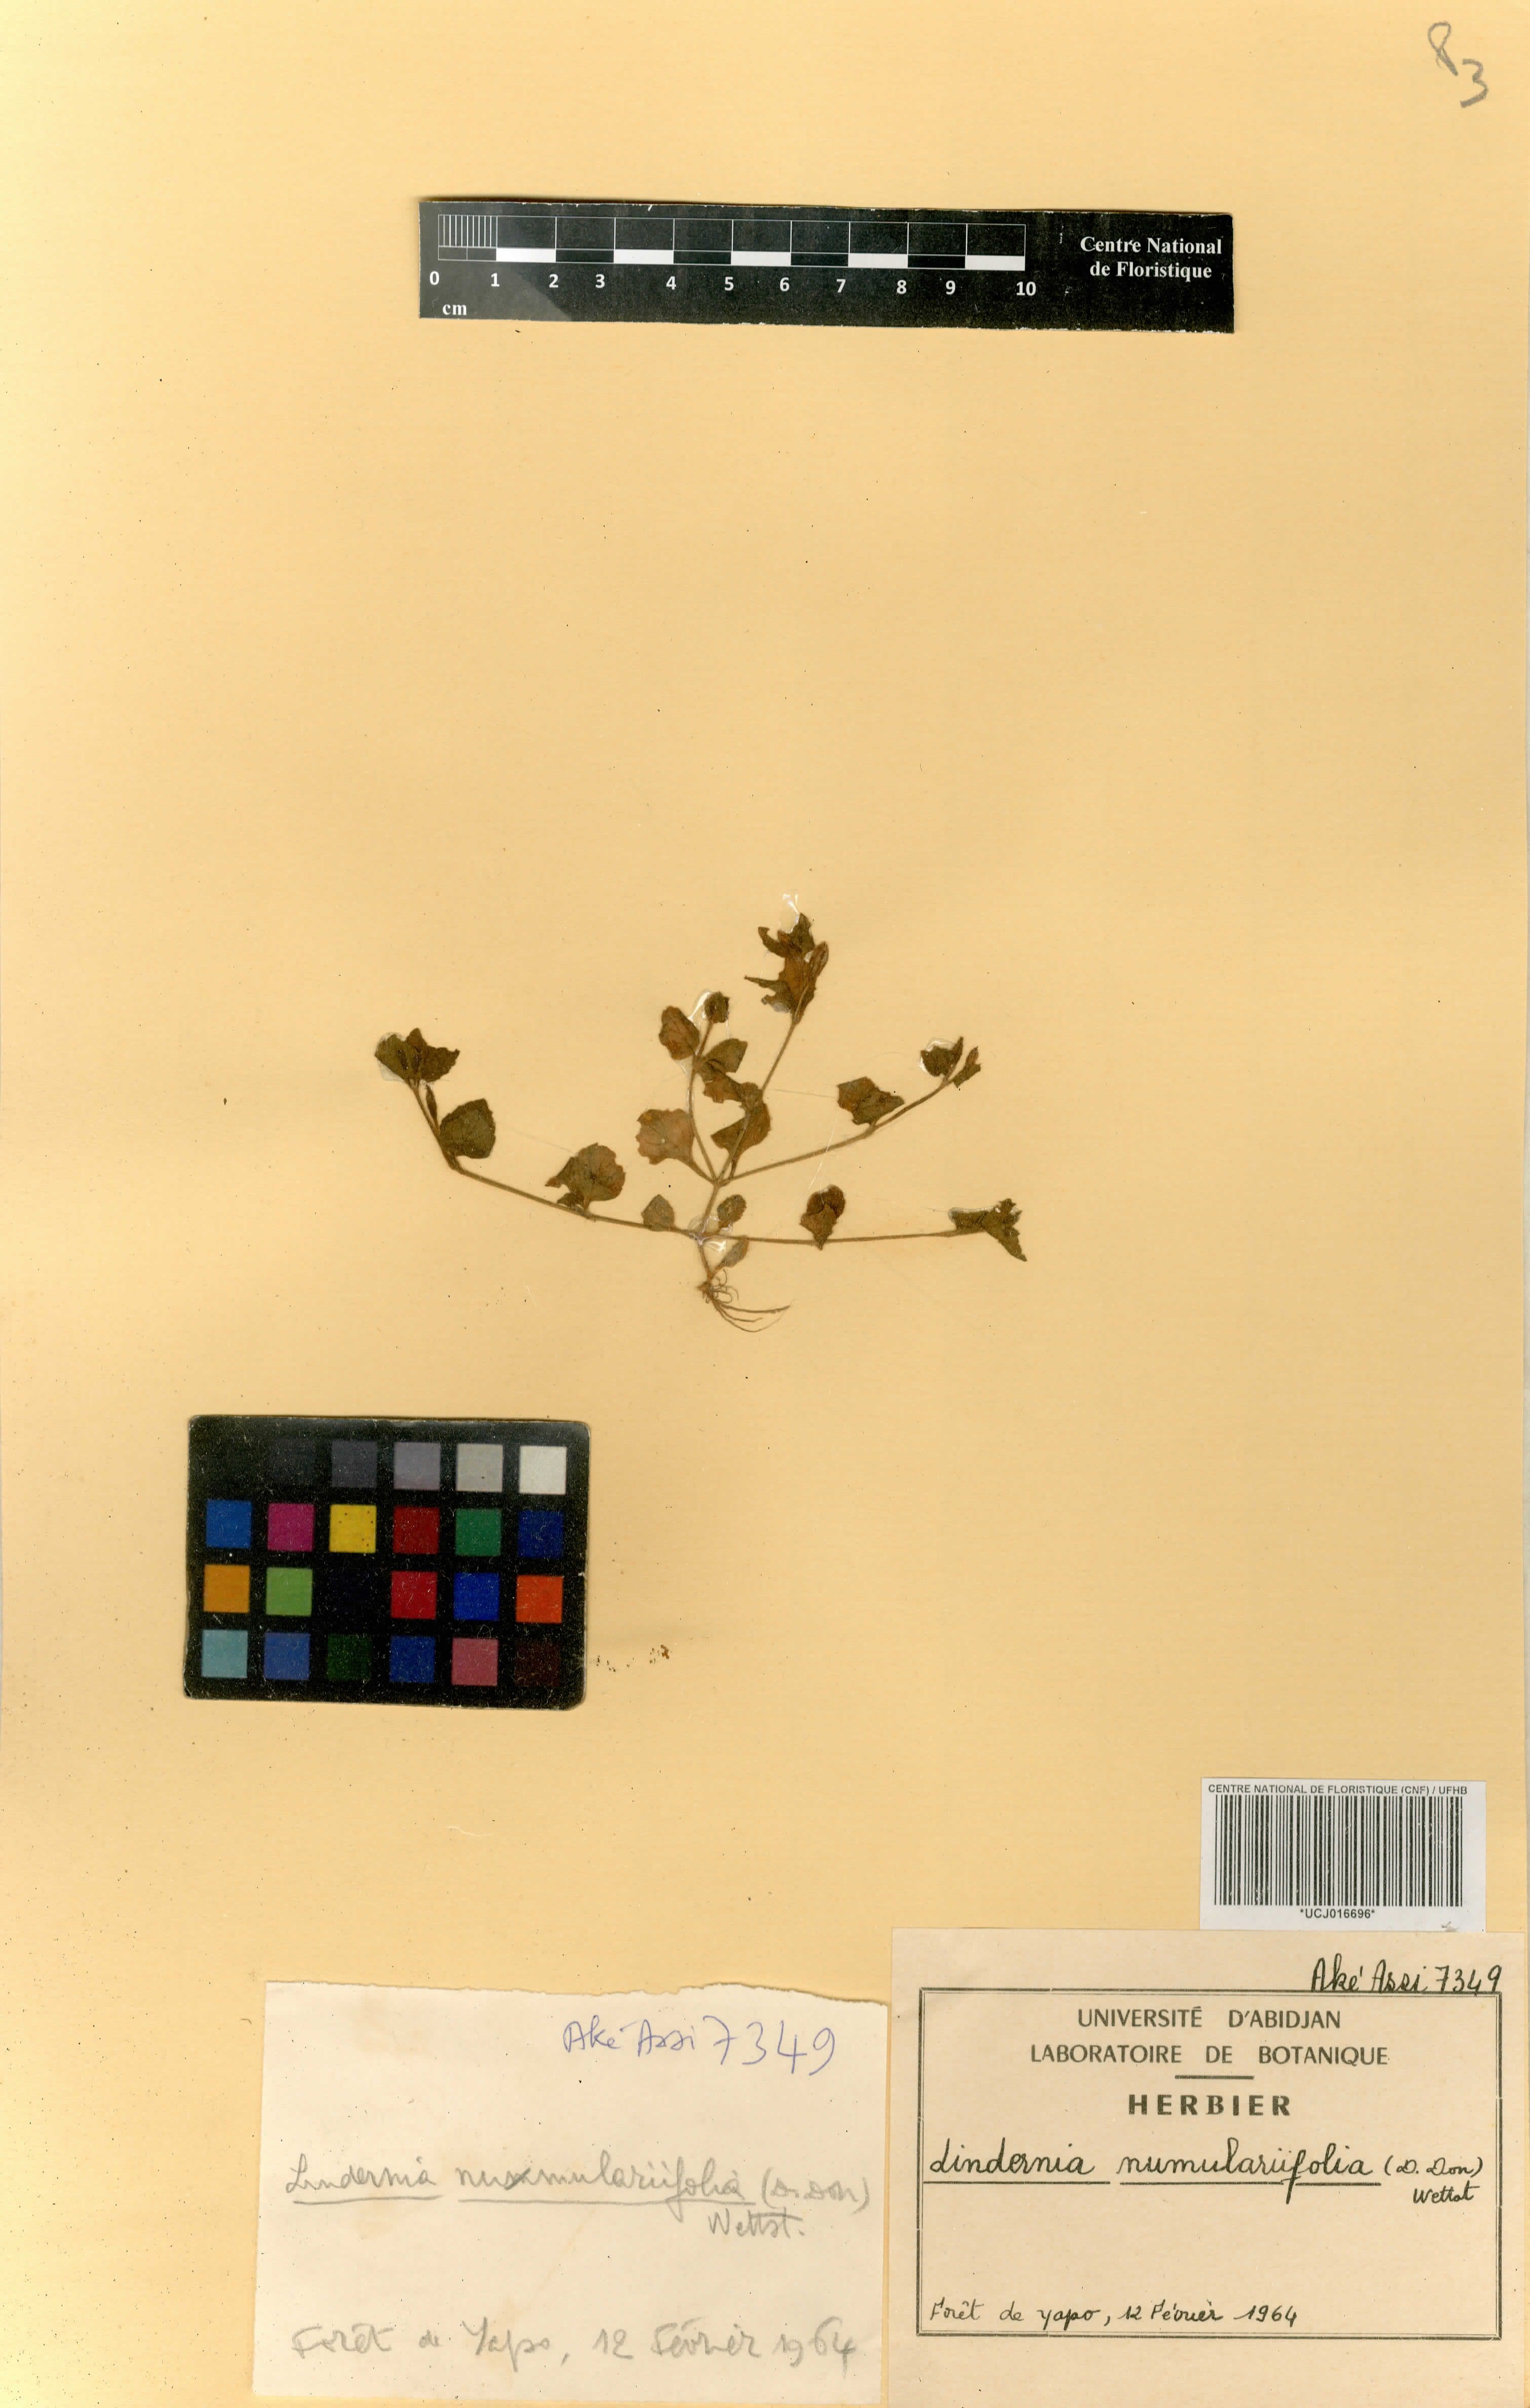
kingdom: Plantae
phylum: Tracheophyta
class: Magnoliopsida
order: Lamiales
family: Linderniaceae
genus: Craterostigma
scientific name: Craterostigma nummulariifolium
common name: False pimpernel
